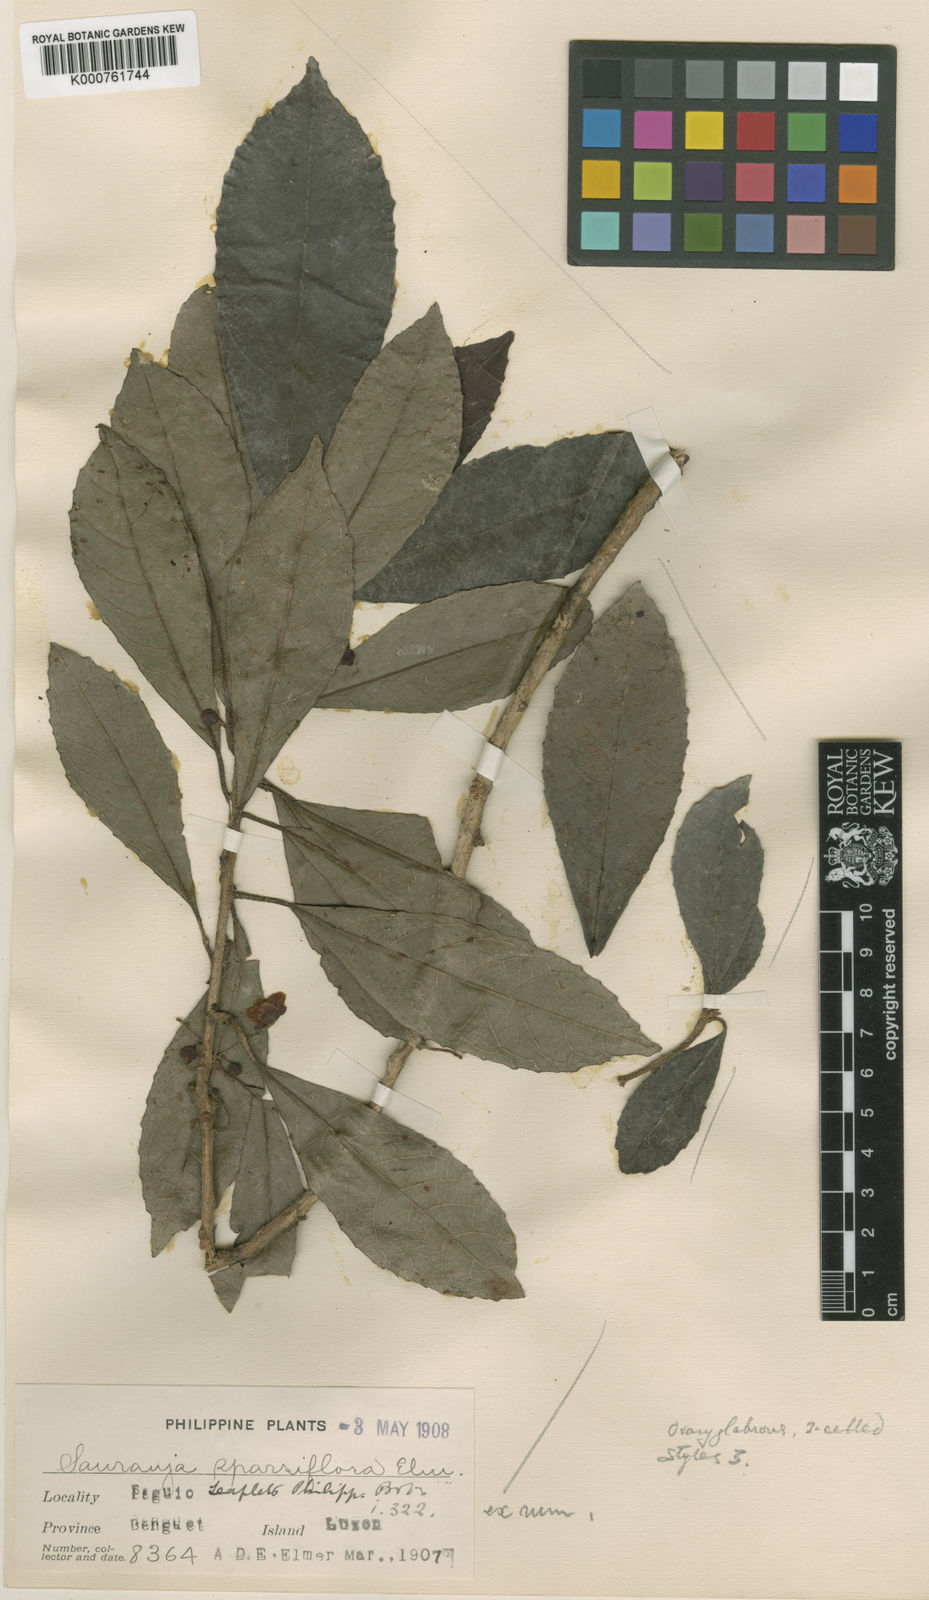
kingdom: Plantae
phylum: Tracheophyta
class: Magnoliopsida
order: Ericales
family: Actinidiaceae
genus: Saurauia
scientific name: Saurauia sparsiflora
